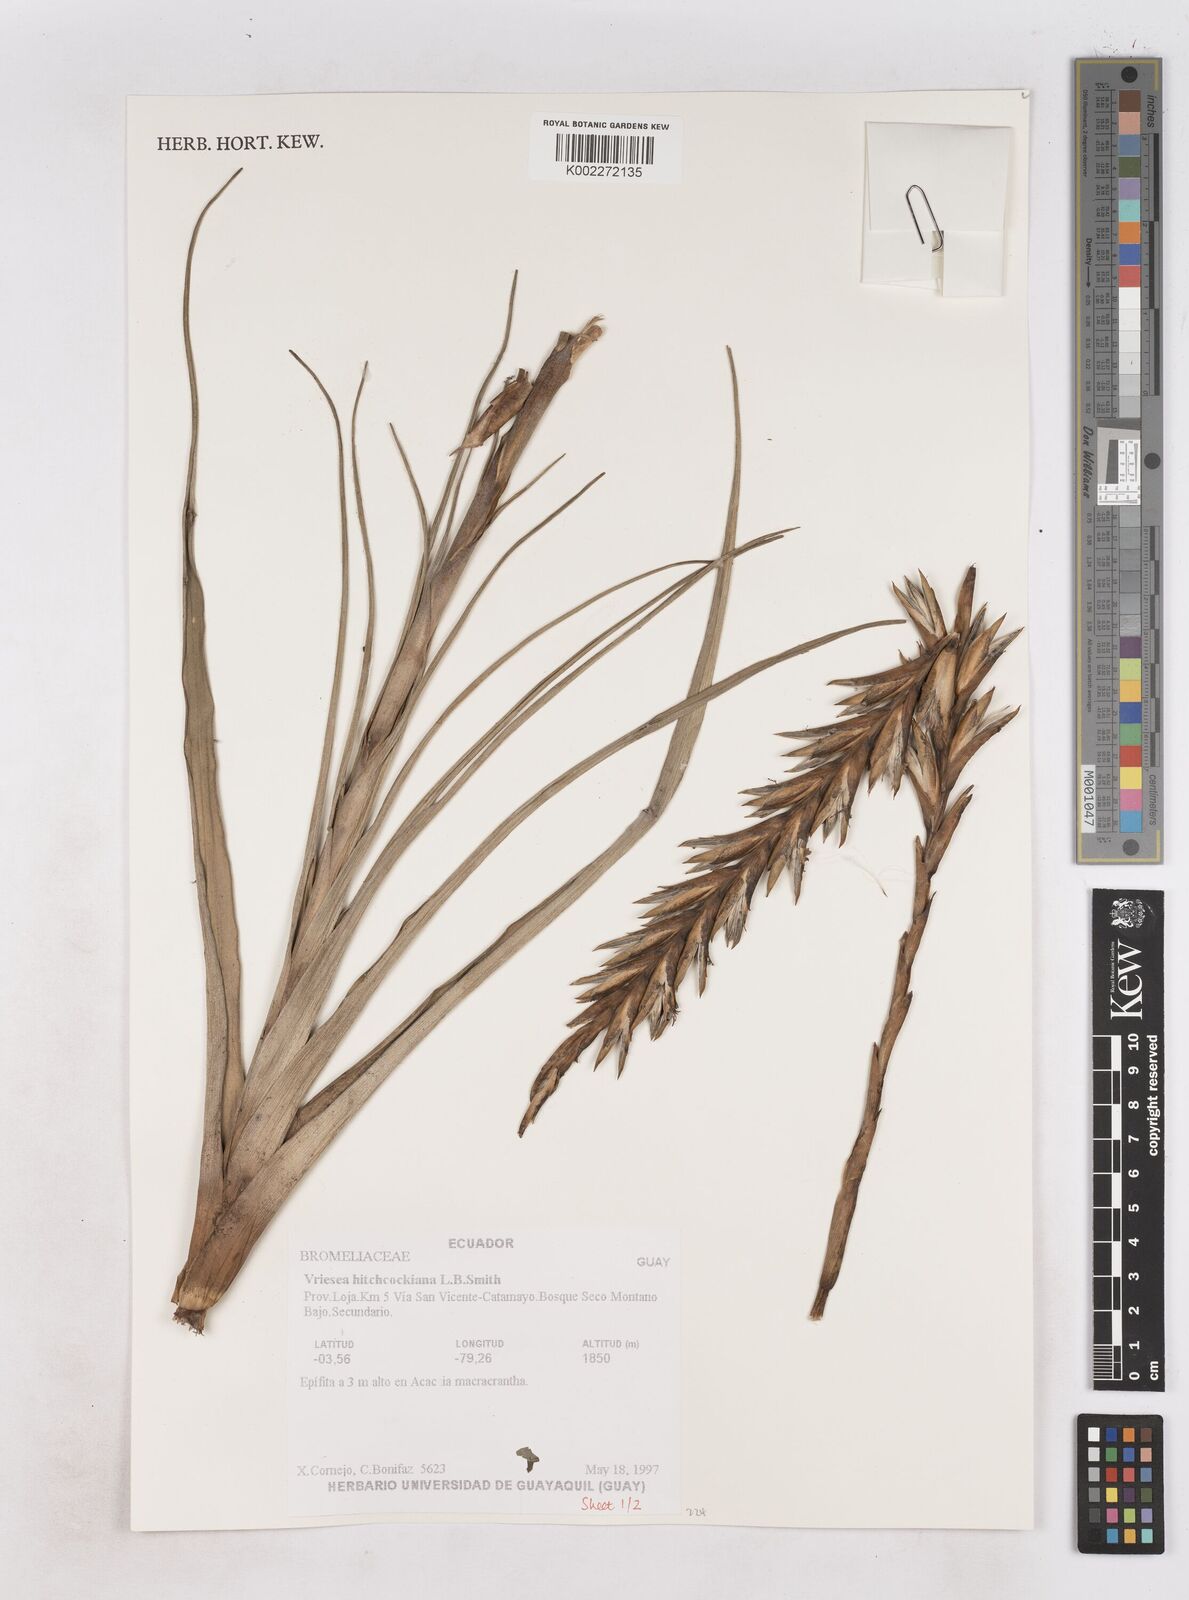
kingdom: Plantae
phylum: Tracheophyta
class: Liliopsida
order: Poales
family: Bromeliaceae
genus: Vriesea
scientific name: Vriesea hitchcockiana
